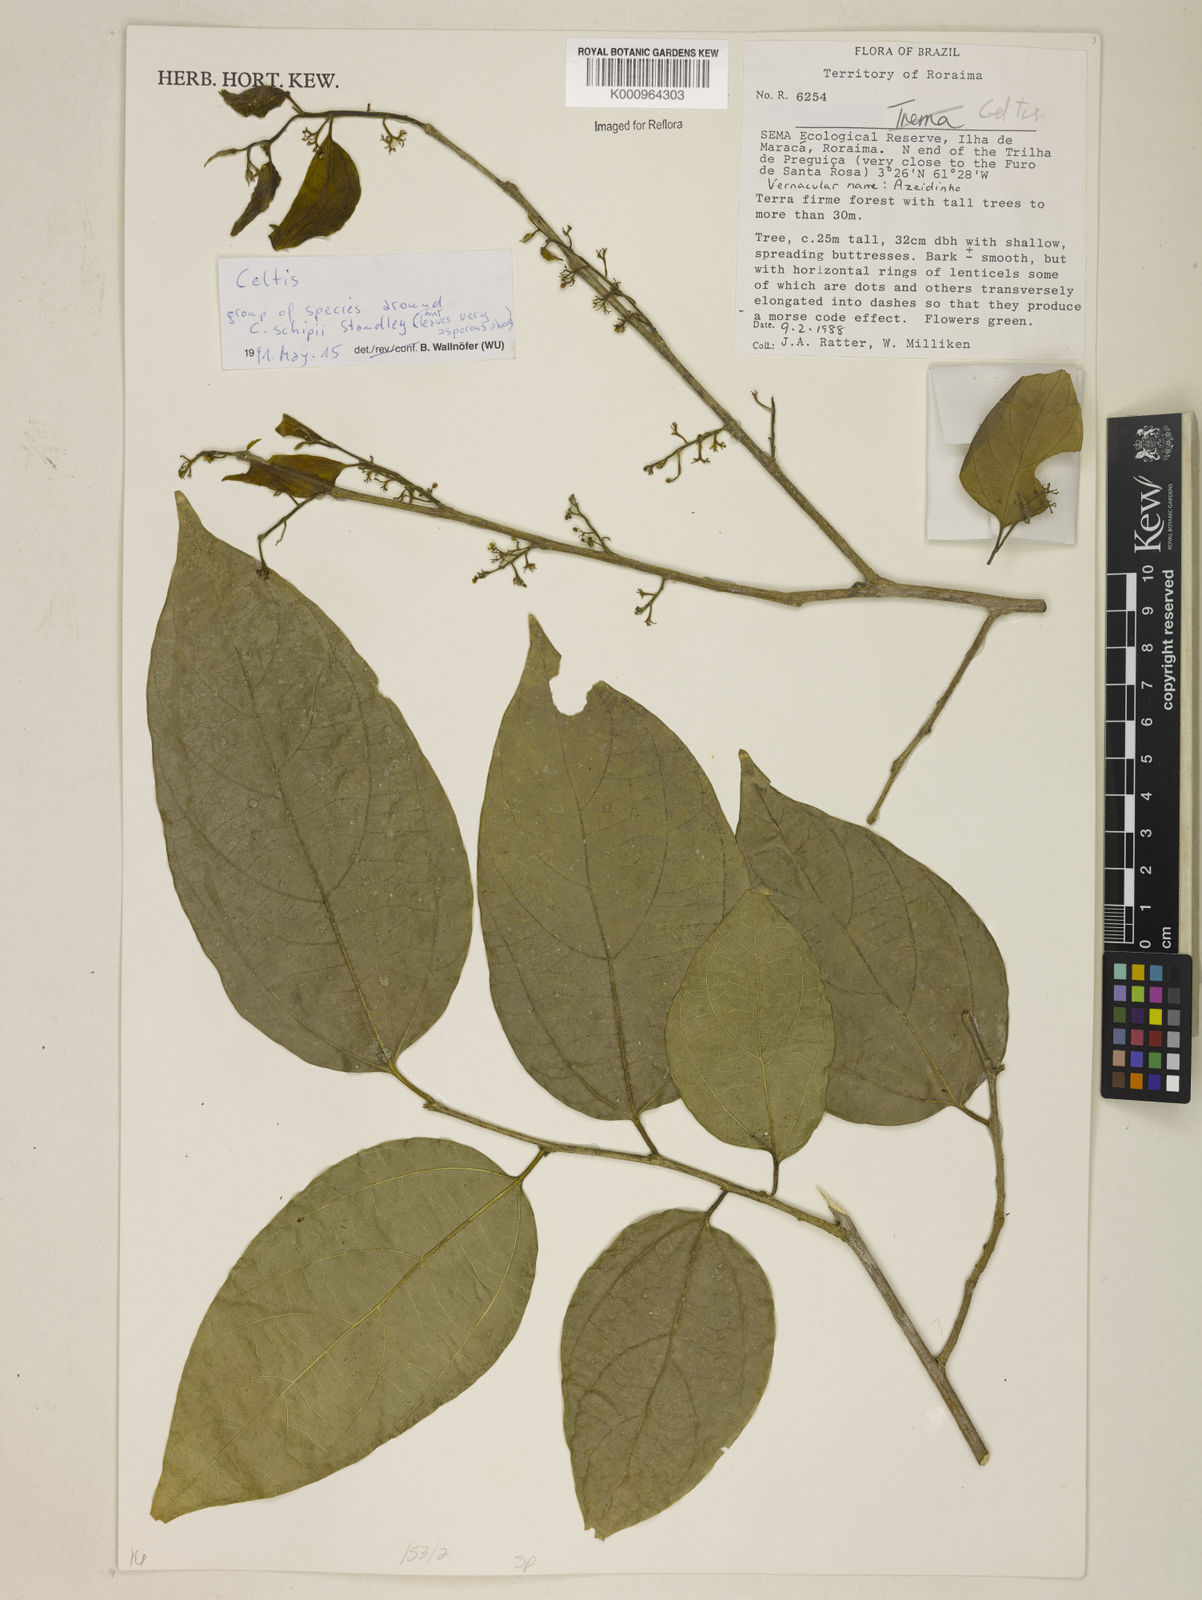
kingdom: Plantae
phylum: Tracheophyta
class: Magnoliopsida
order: Rosales
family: Cannabaceae
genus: Celtis
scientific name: Celtis
